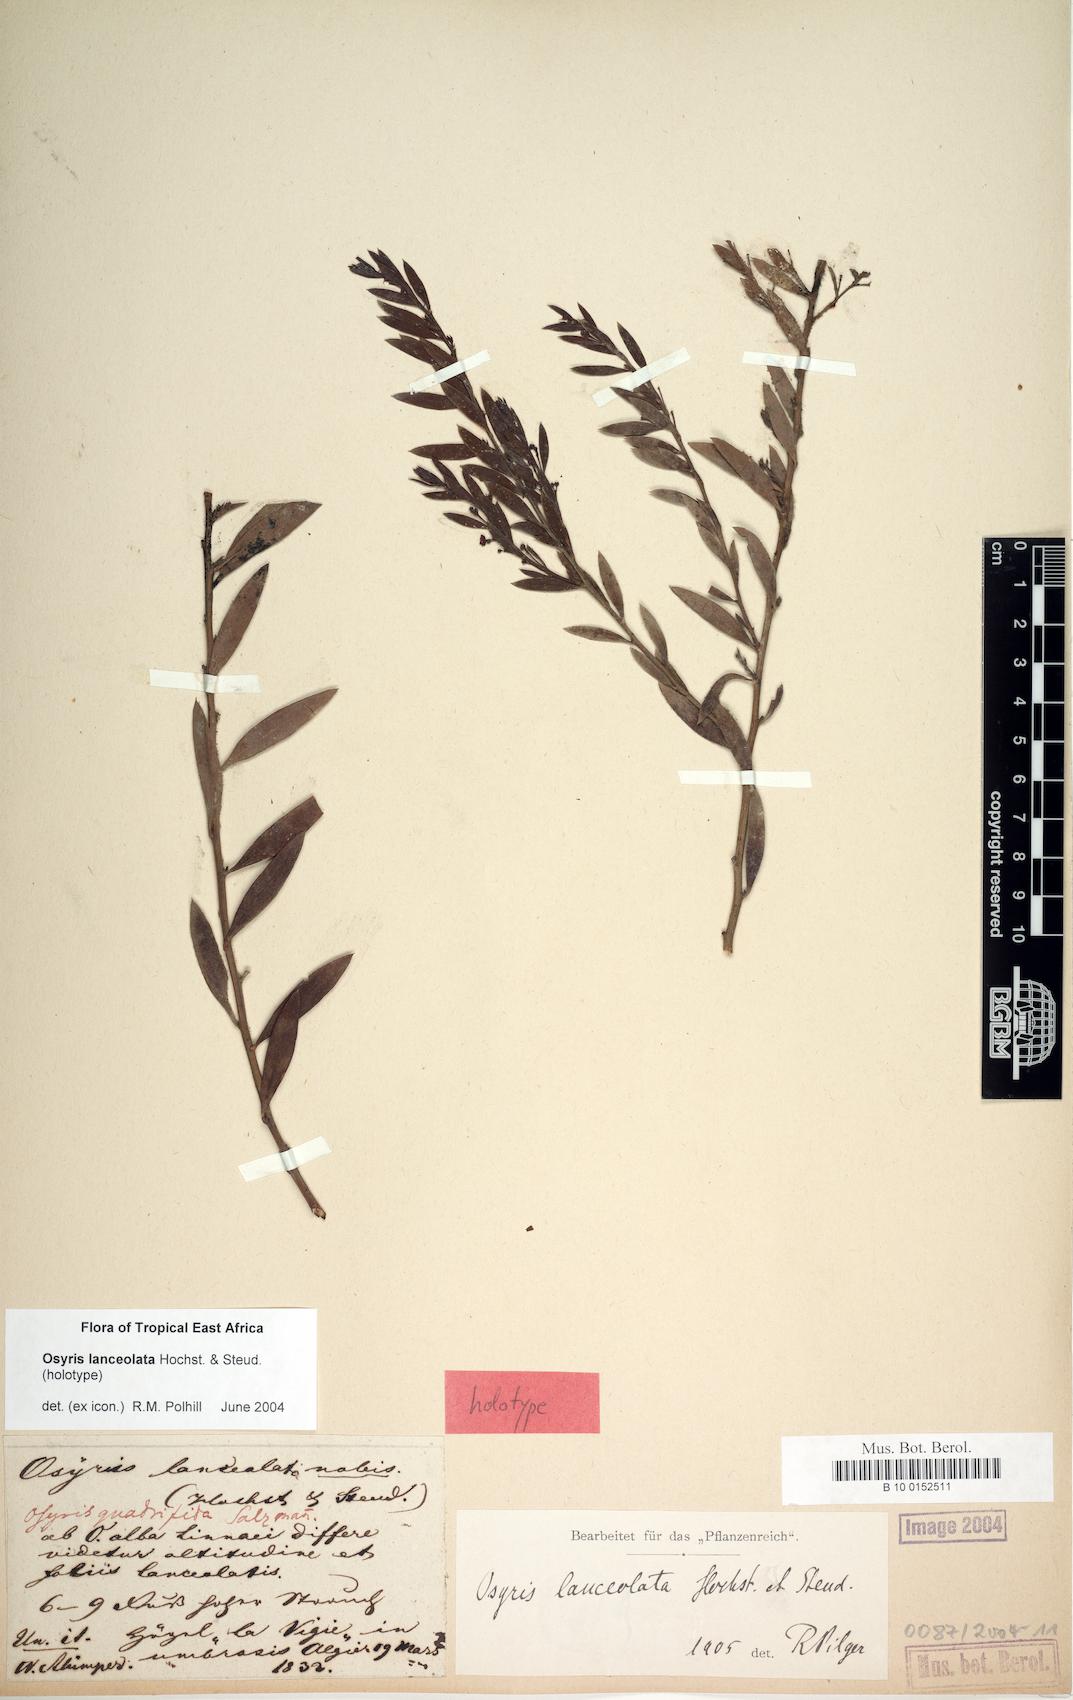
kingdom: Plantae
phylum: Tracheophyta
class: Magnoliopsida
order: Santalales
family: Santalaceae
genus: Osyris
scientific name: Osyris lanceolata
